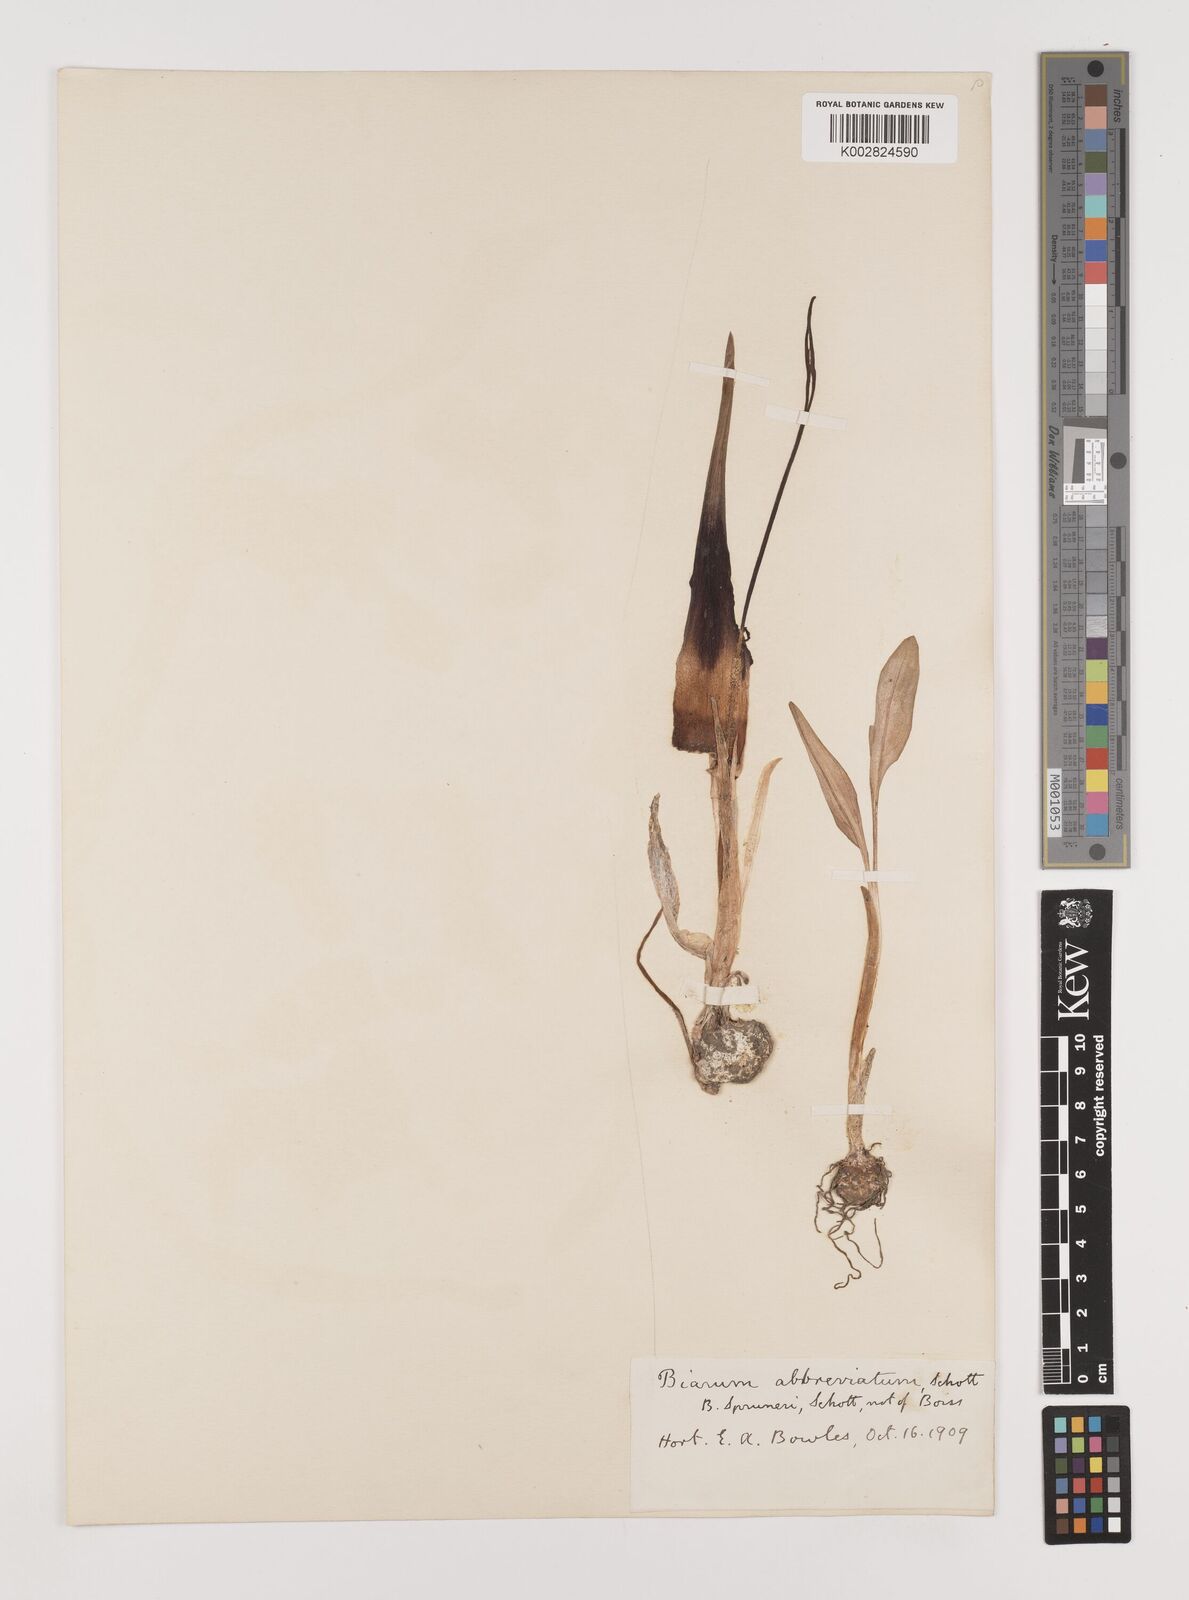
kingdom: Plantae
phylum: Tracheophyta
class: Liliopsida
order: Alismatales
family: Araceae
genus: Biarum
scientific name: Biarum tenuifolium
